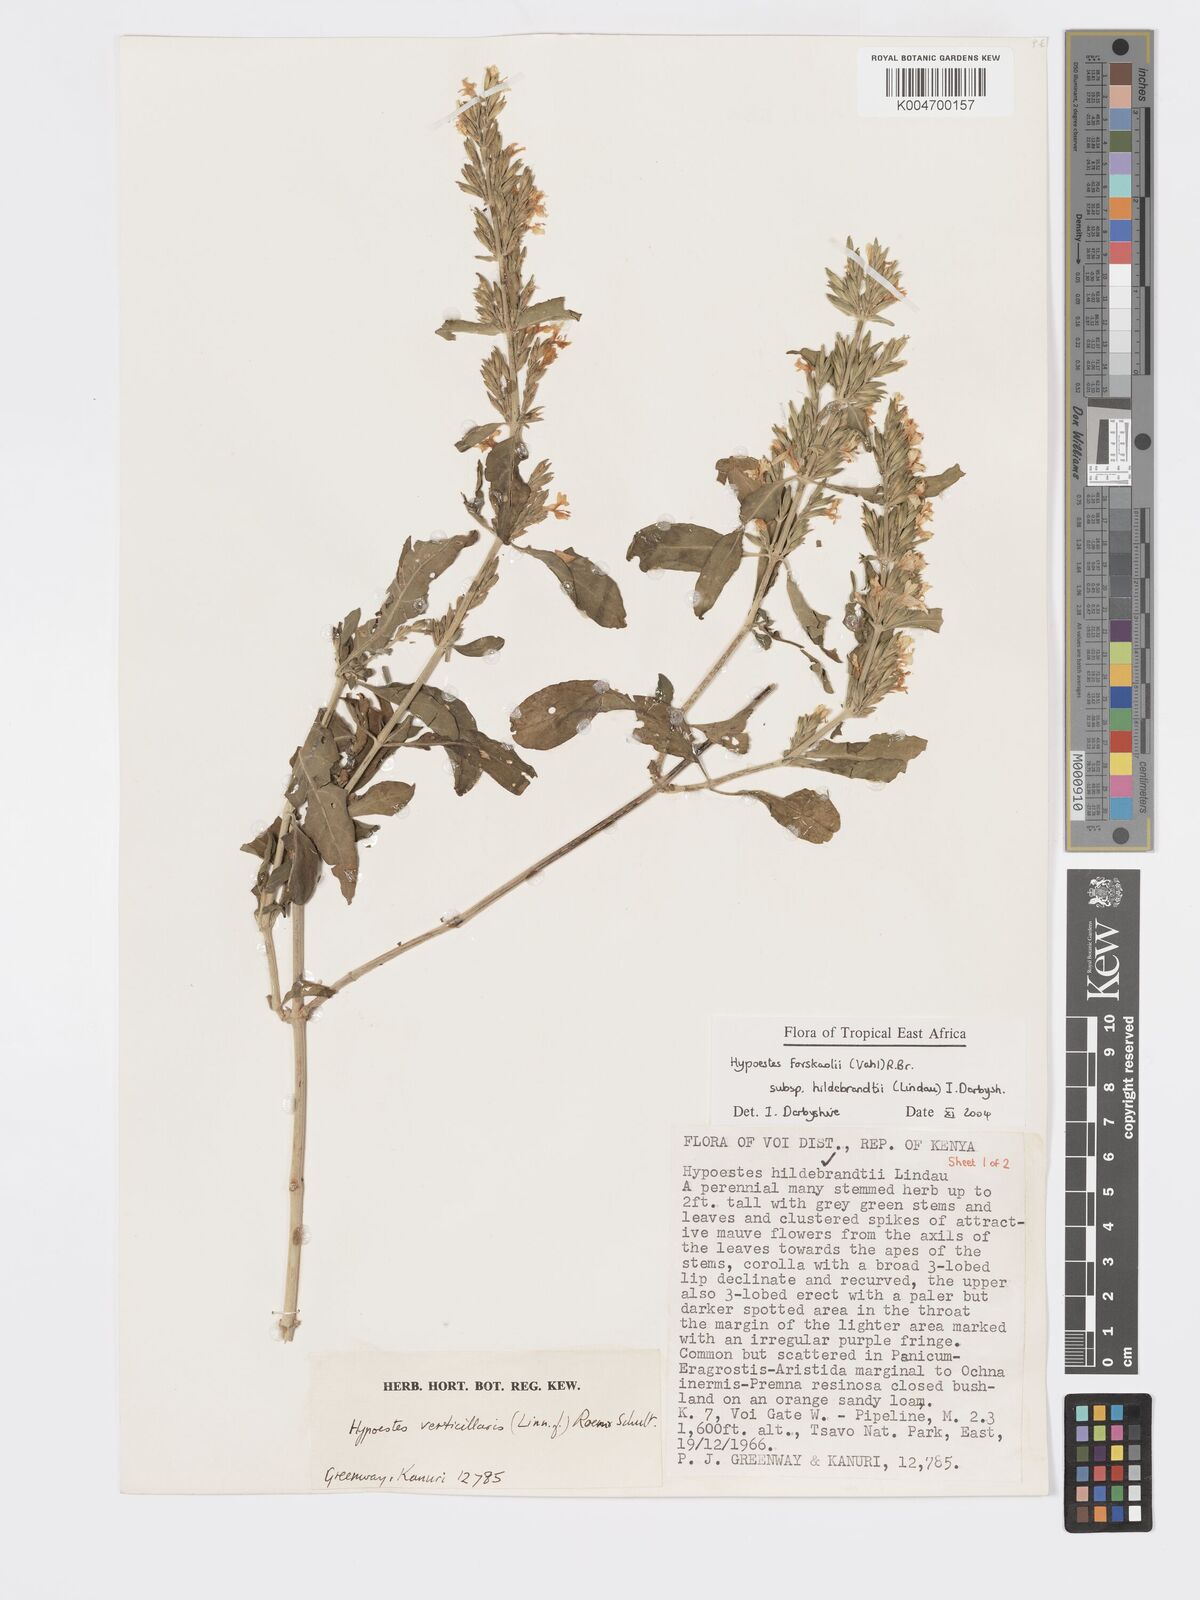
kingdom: Plantae
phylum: Tracheophyta
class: Magnoliopsida
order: Lamiales
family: Acanthaceae
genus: Hypoestes
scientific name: Hypoestes forskaolii
